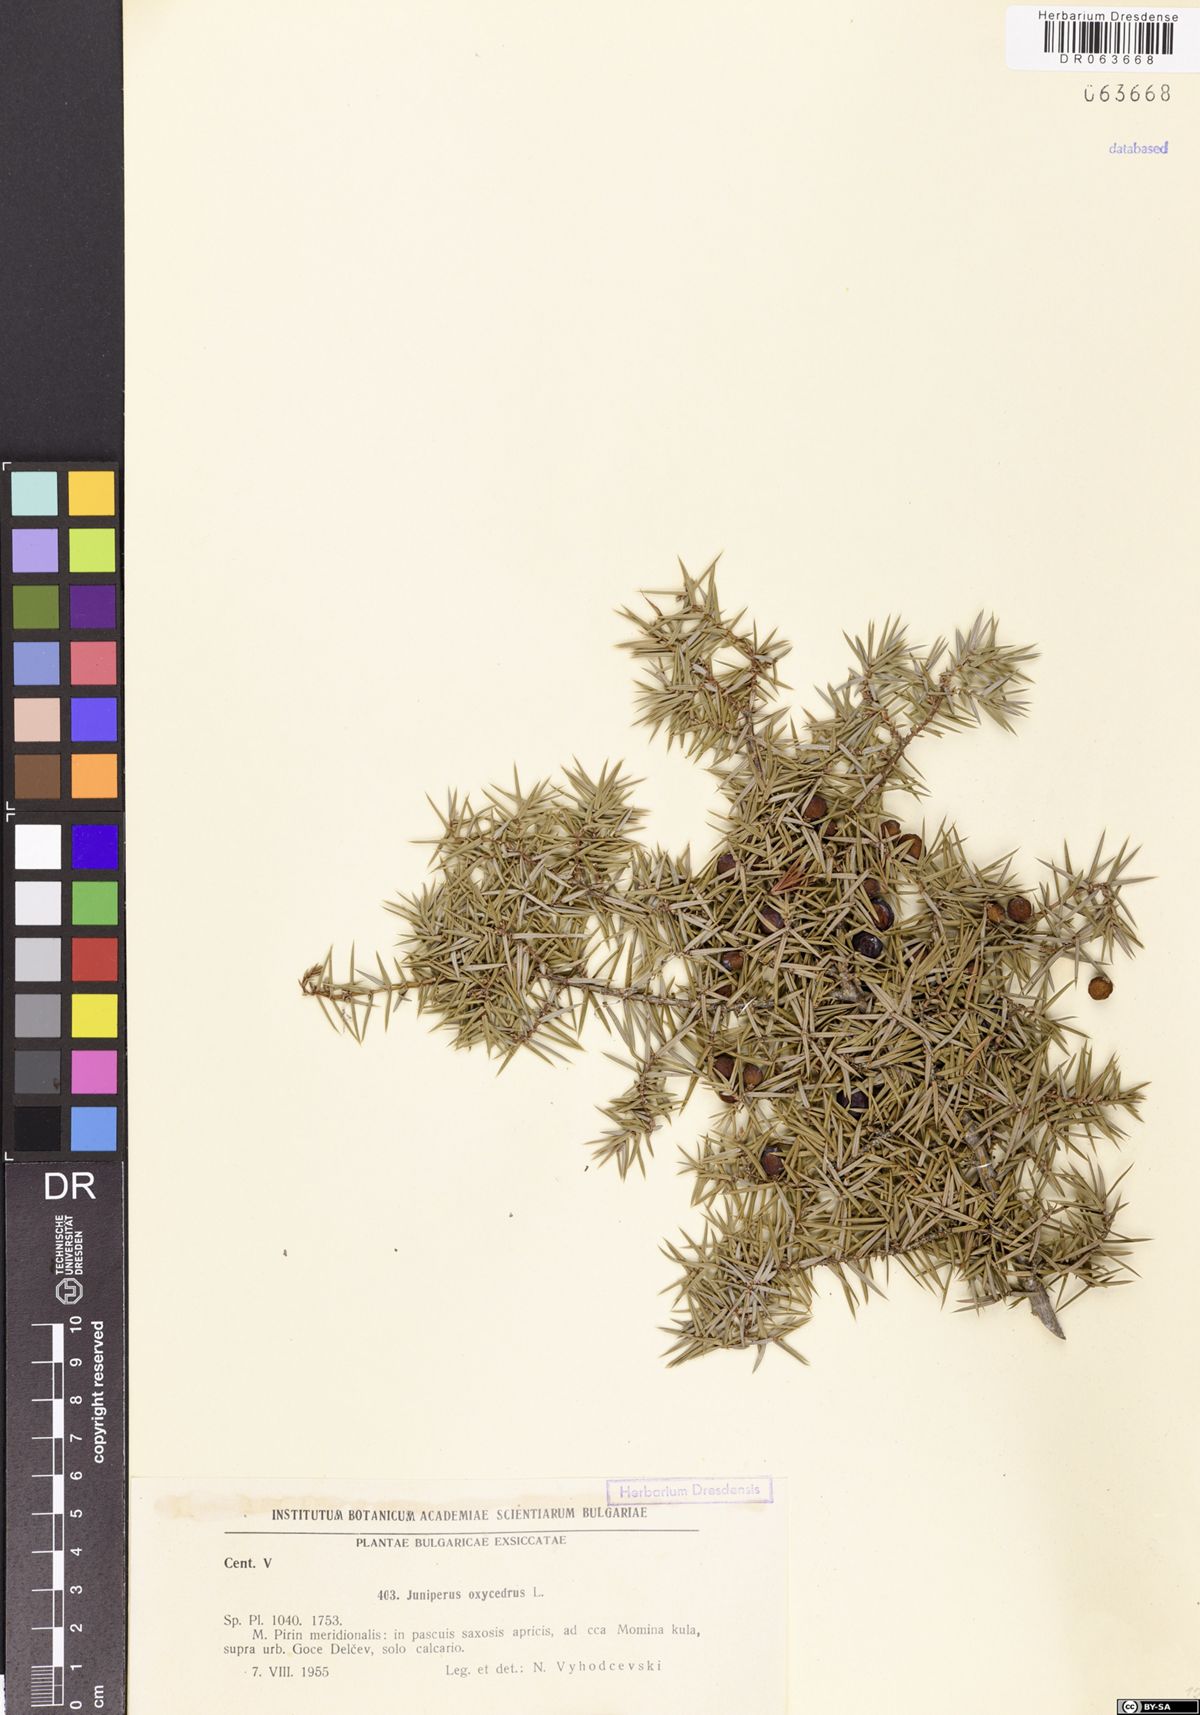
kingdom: Plantae
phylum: Tracheophyta
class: Pinopsida
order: Pinales
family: Cupressaceae
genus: Juniperus
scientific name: Juniperus oxycedrus
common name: Prickly juniper
